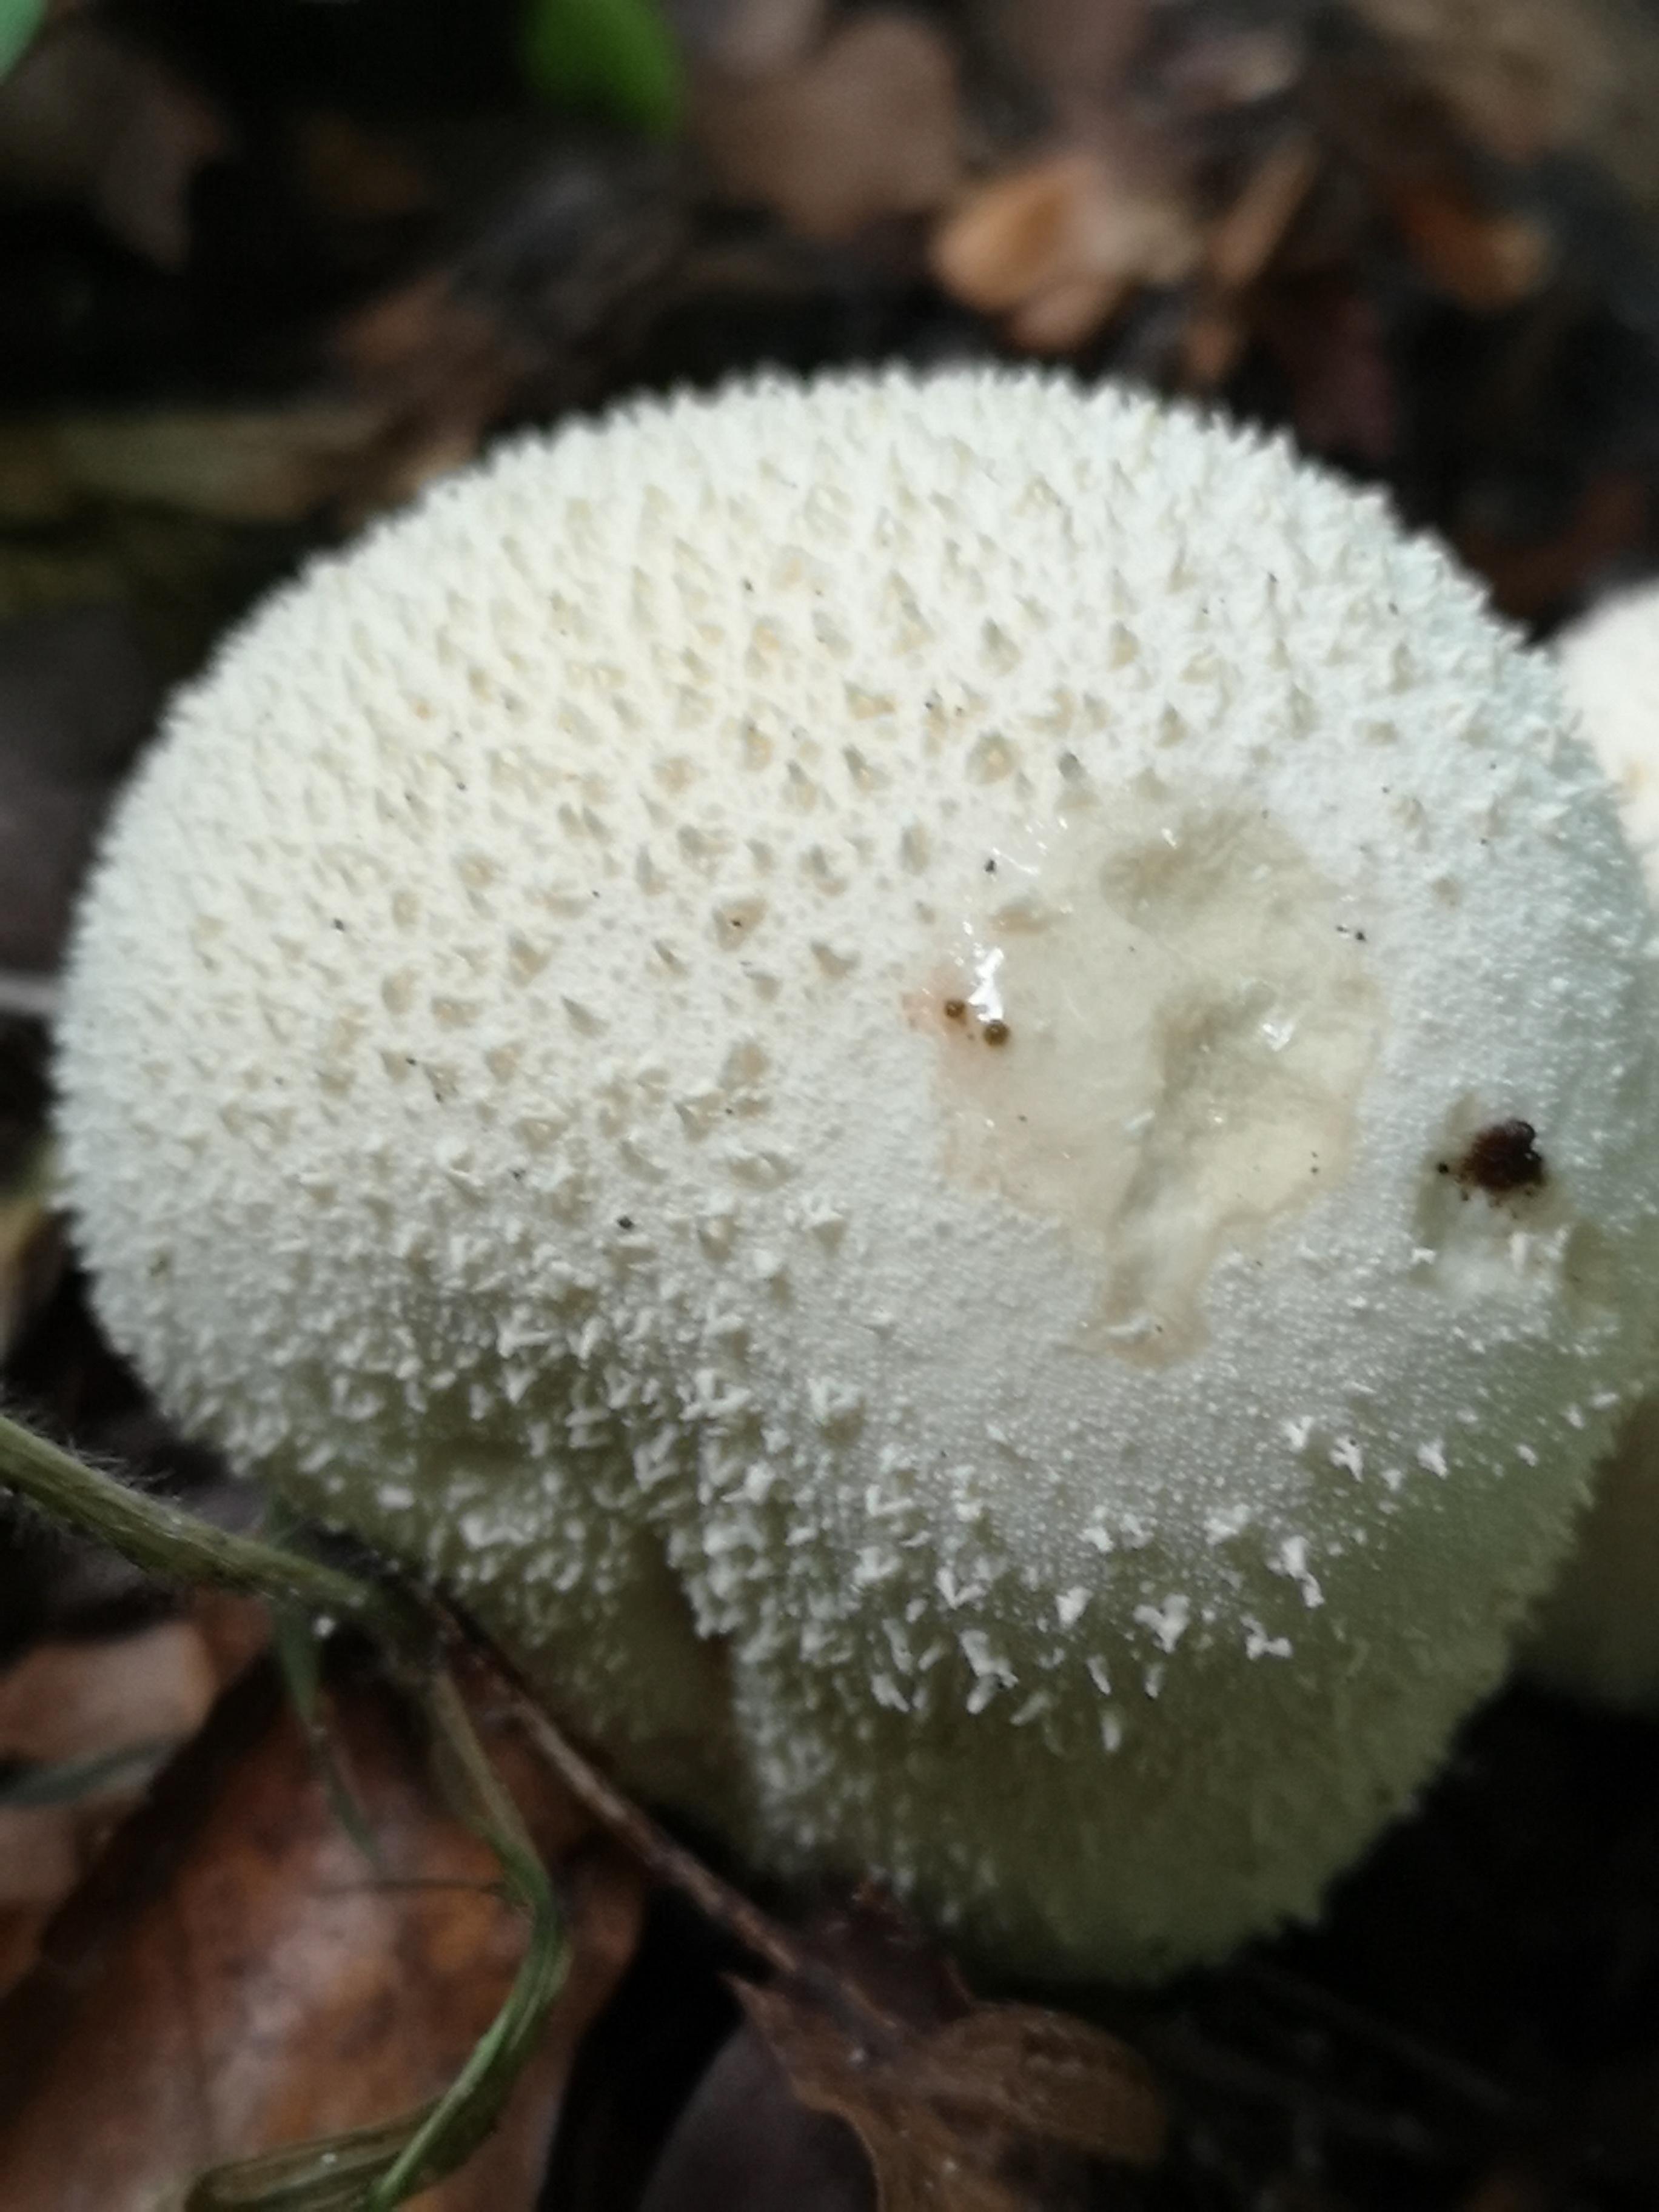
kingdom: Fungi
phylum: Basidiomycota
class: Agaricomycetes
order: Agaricales
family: Lycoperdaceae
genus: Lycoperdon
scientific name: Lycoperdon perlatum
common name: krystal-støvbold
